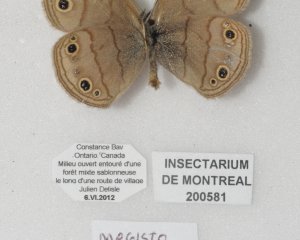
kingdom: Animalia
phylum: Arthropoda
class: Insecta
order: Lepidoptera
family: Nymphalidae
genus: Euptychia
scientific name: Euptychia cymela
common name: Little Wood Satyr
